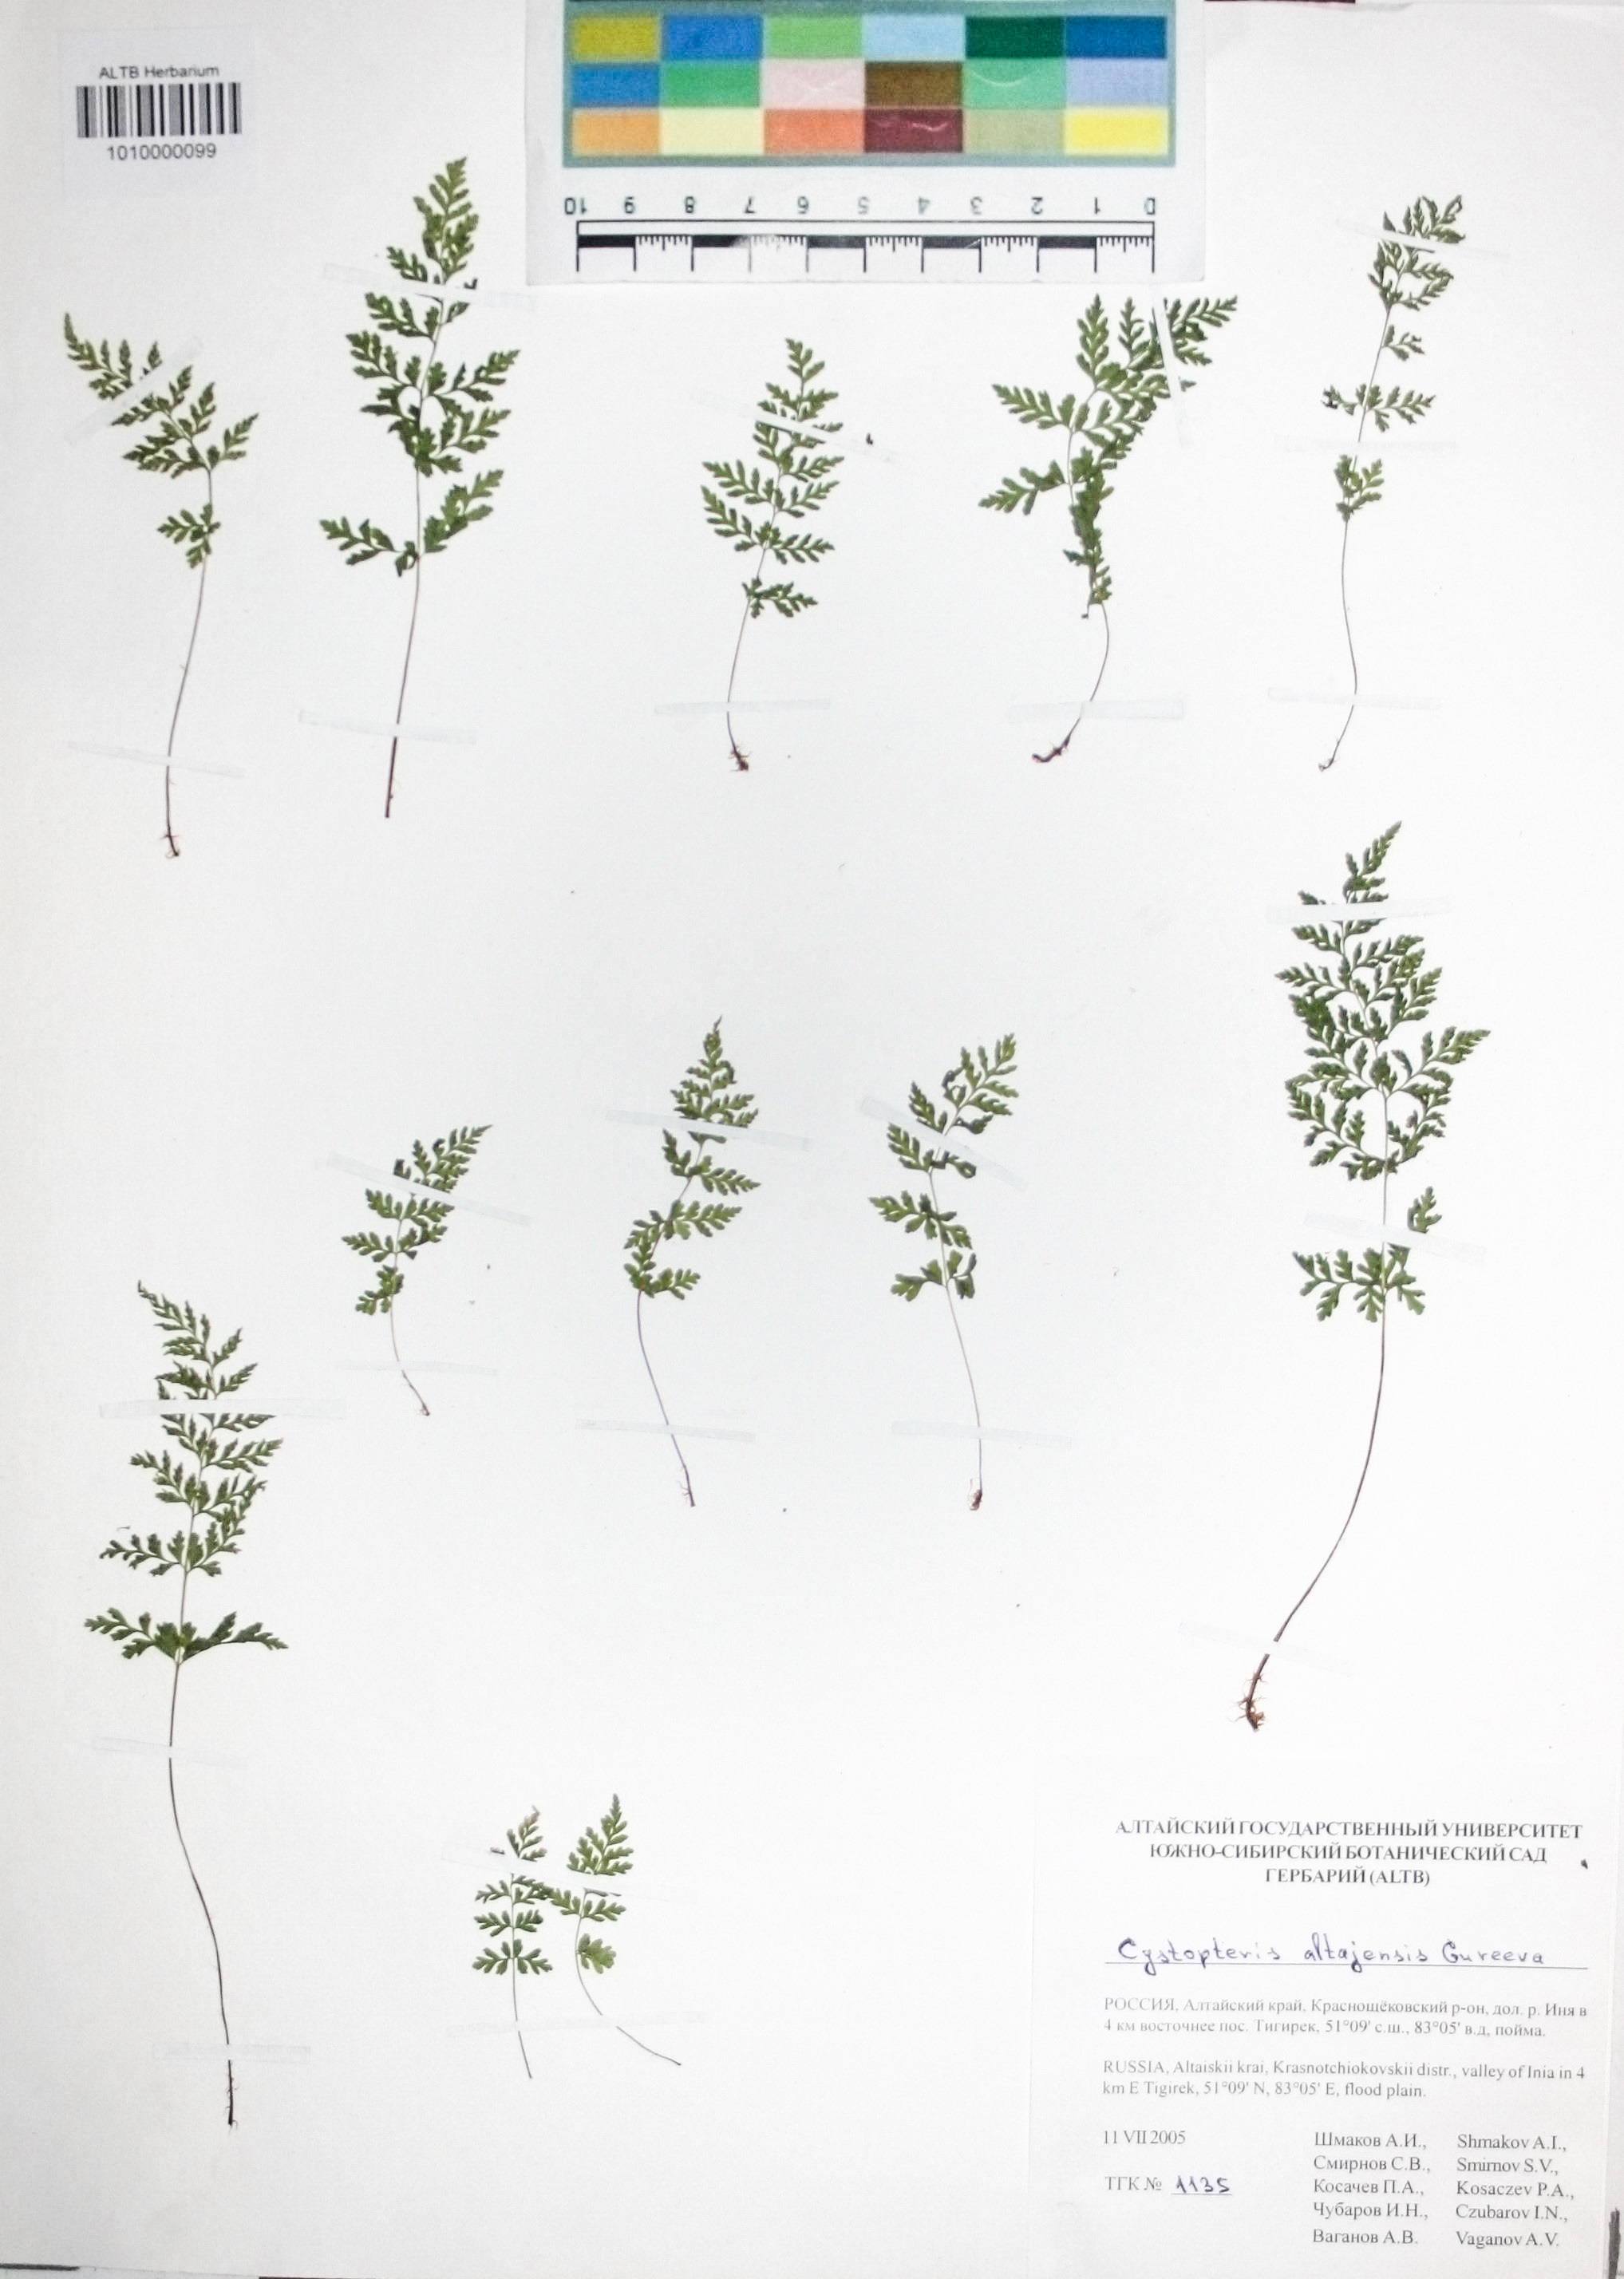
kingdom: Plantae
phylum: Tracheophyta
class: Polypodiopsida
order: Polypodiales
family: Cystopteridaceae
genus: Cystopteris
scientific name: Cystopteris diaphana
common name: Greenish bladder-fern
